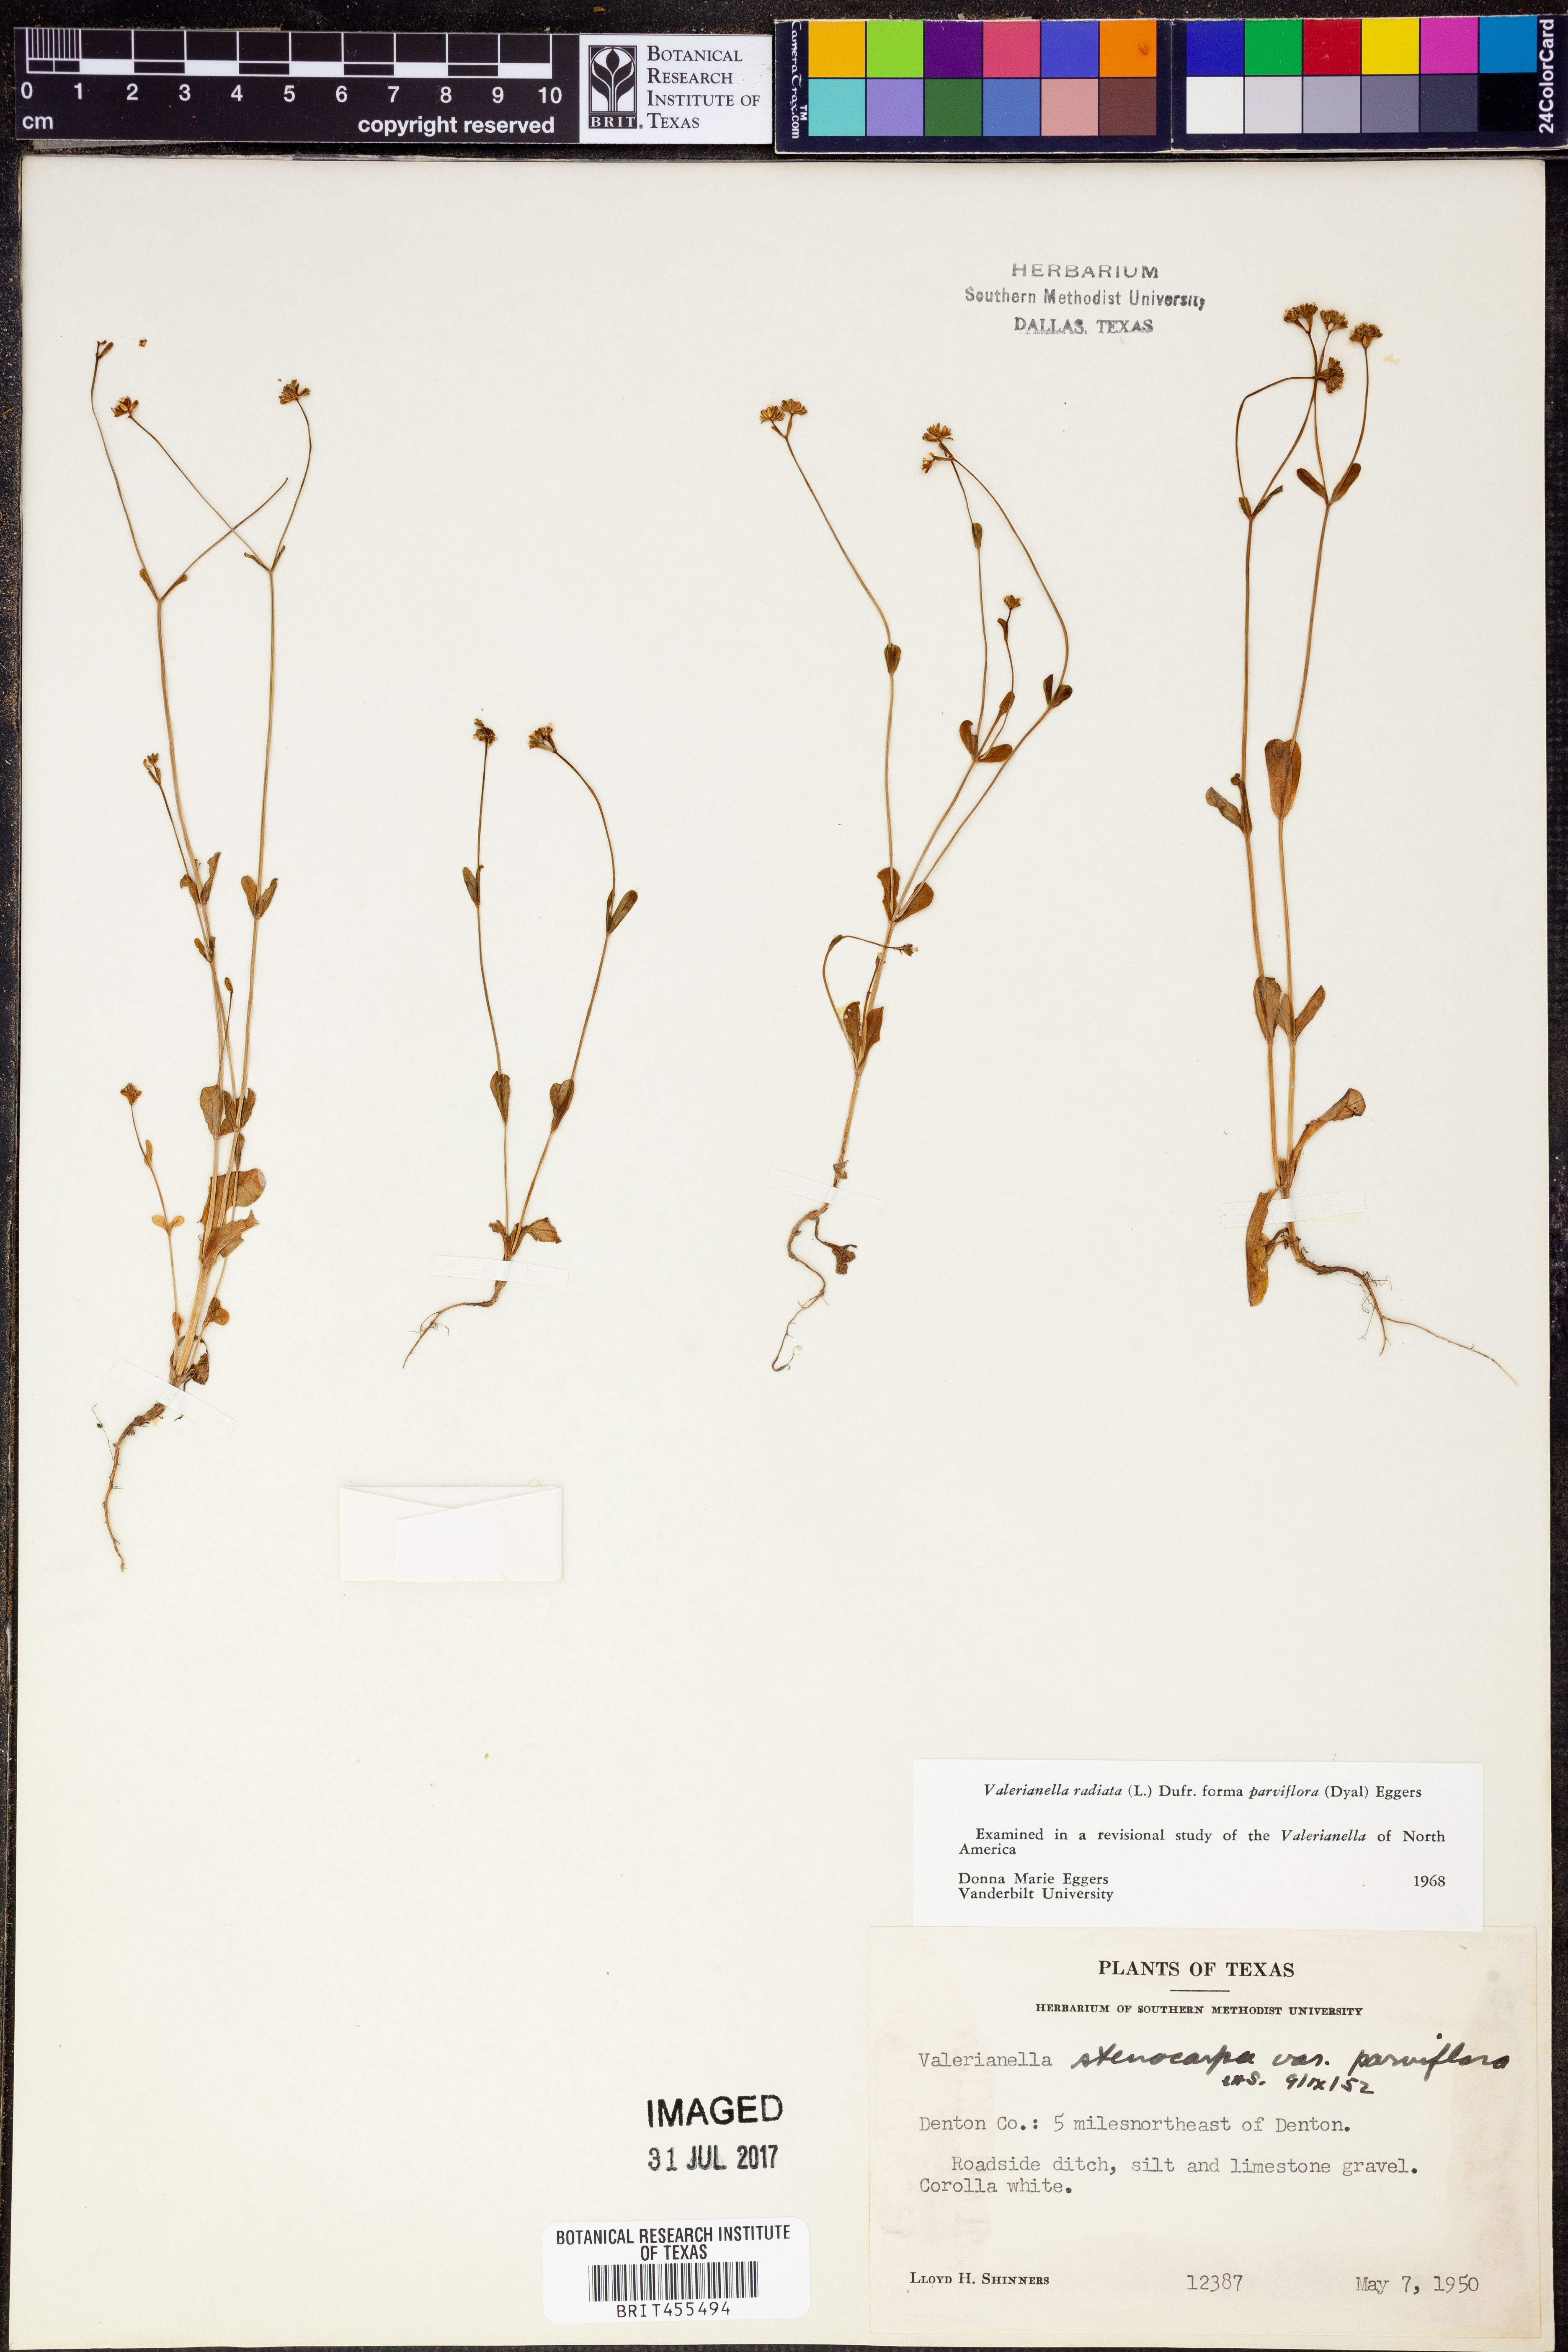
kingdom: Plantae
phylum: Tracheophyta
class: Magnoliopsida
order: Dipsacales
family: Caprifoliaceae
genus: Valerianella
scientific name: Valerianella radiata
